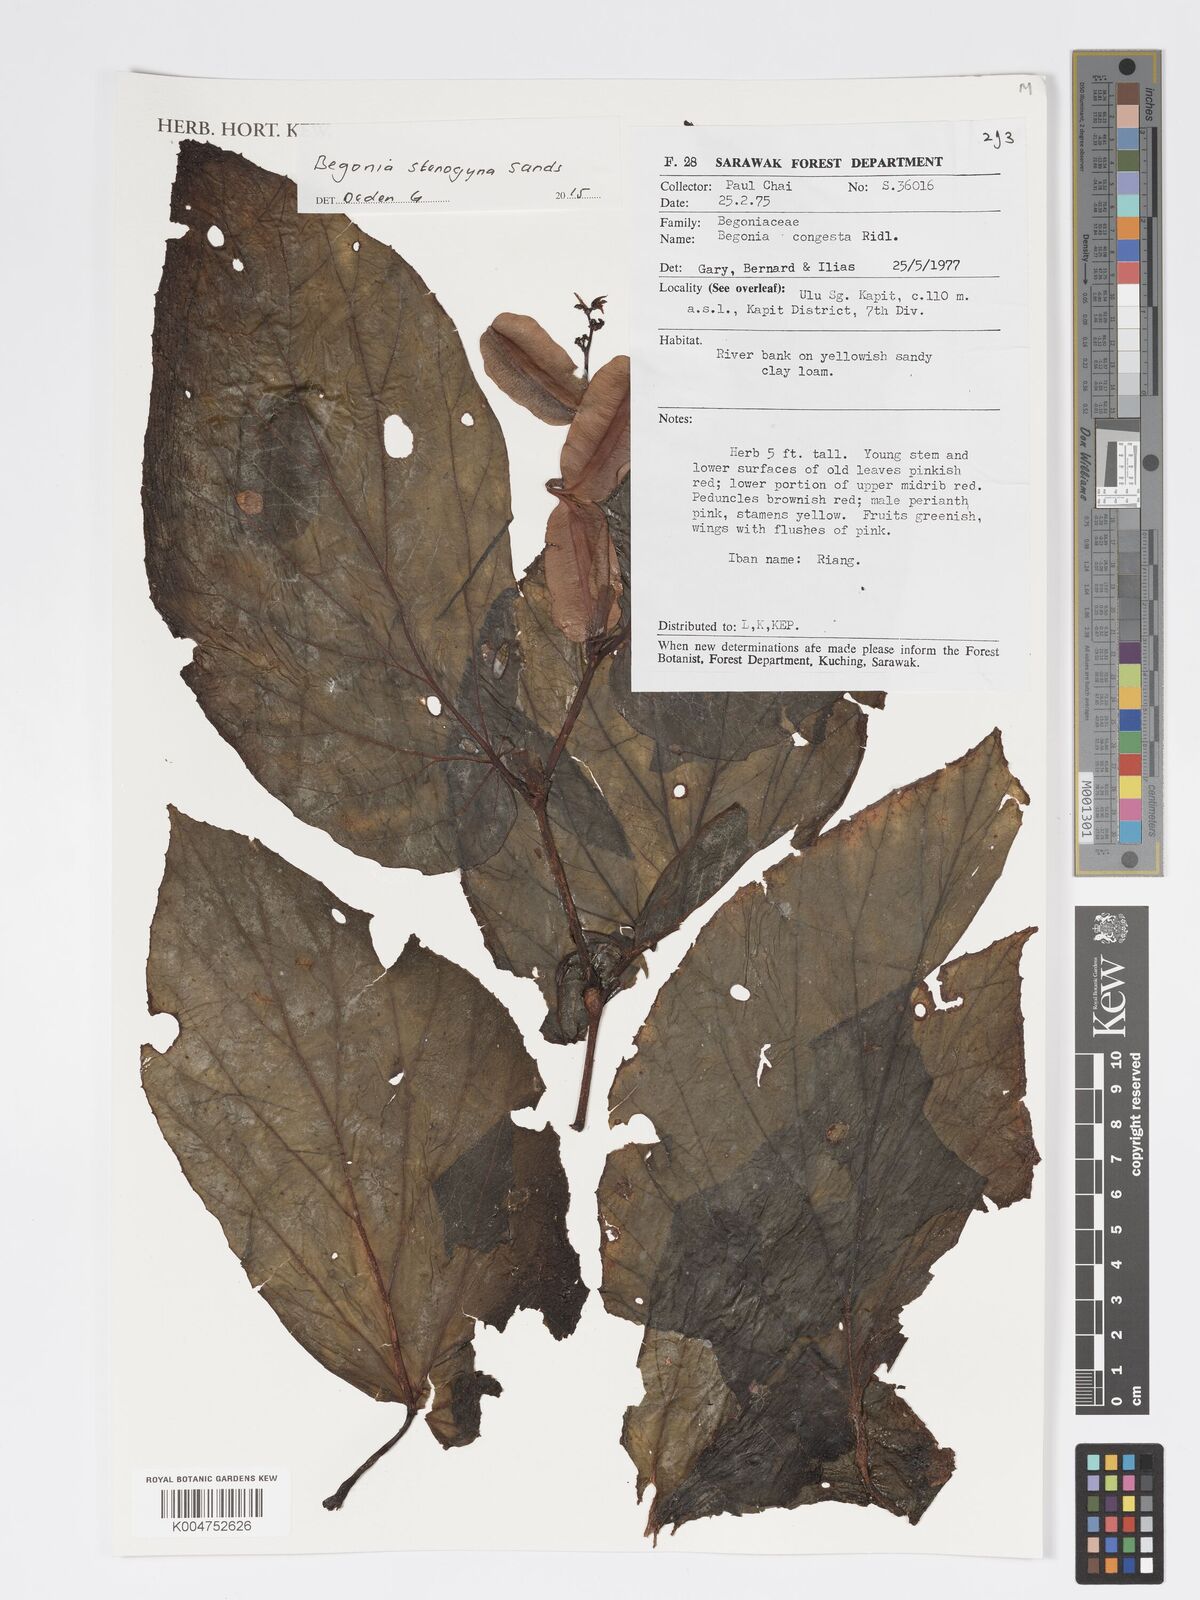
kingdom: Plantae
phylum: Tracheophyta
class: Magnoliopsida
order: Cucurbitales
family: Begoniaceae
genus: Begonia
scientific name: Begonia stenogyna
